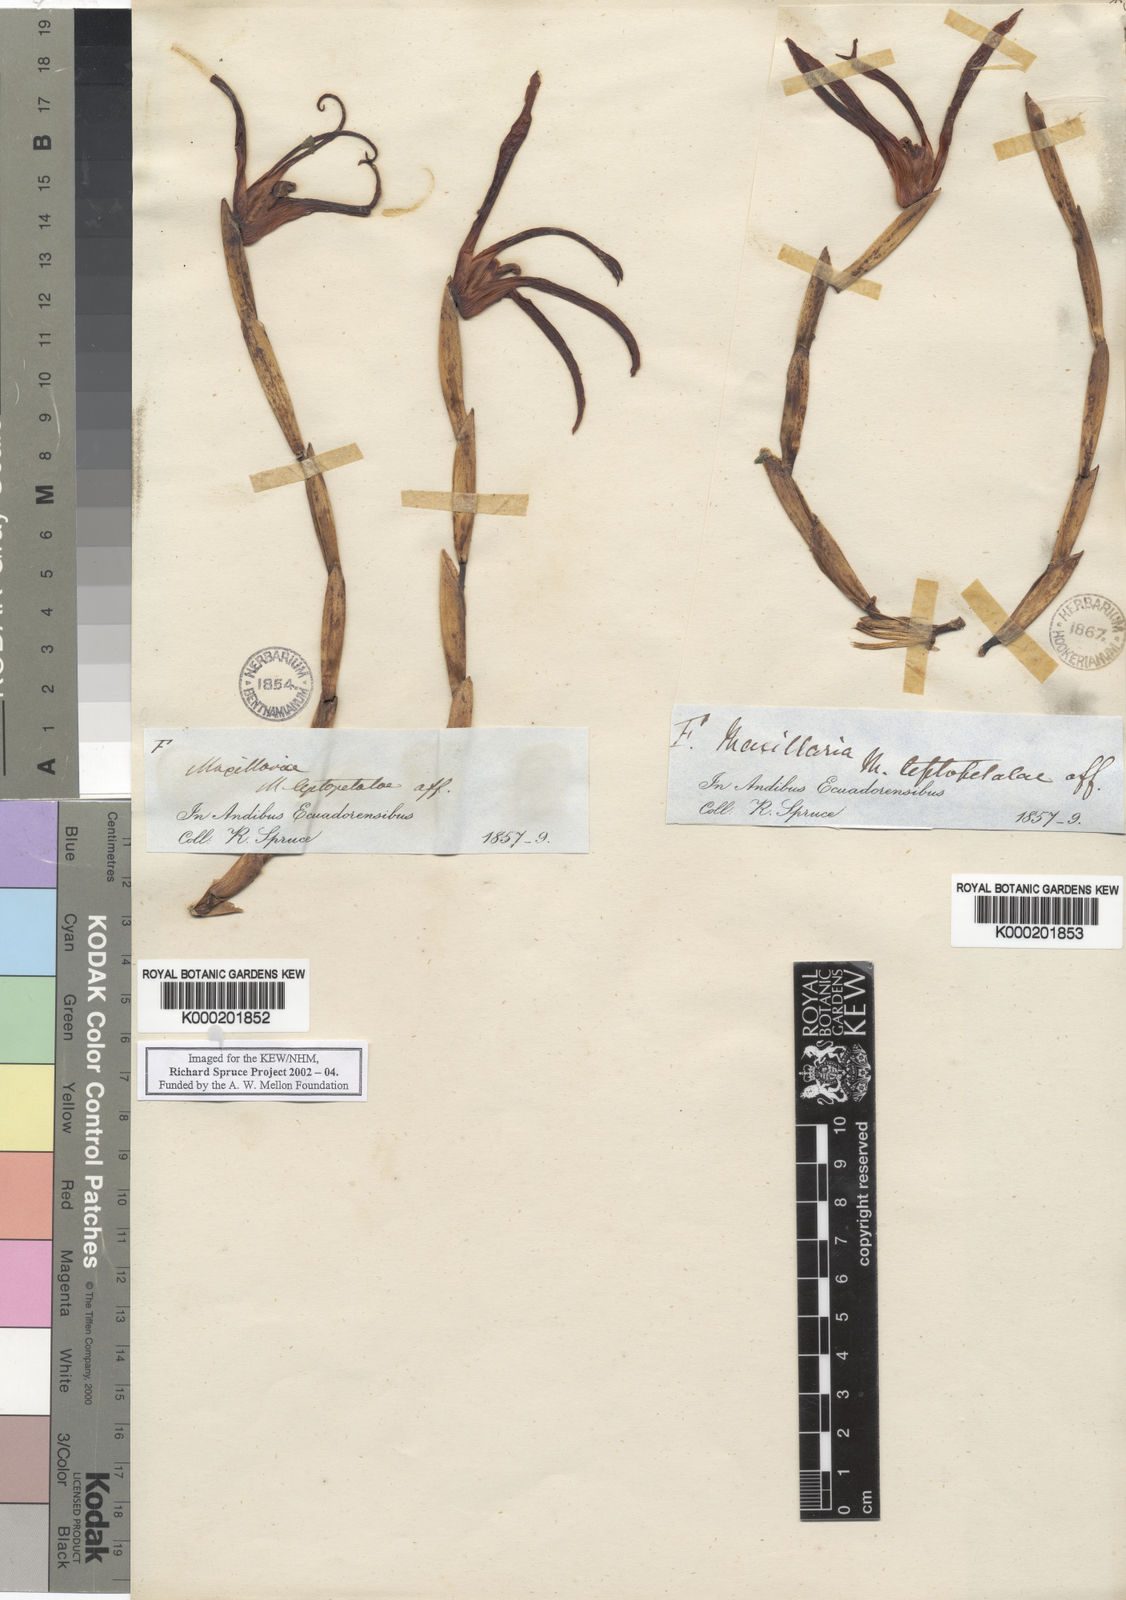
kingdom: Plantae
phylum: Tracheophyta
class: Liliopsida
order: Asparagales
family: Orchidaceae
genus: Maxillaria
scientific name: Maxillaria callichroma
